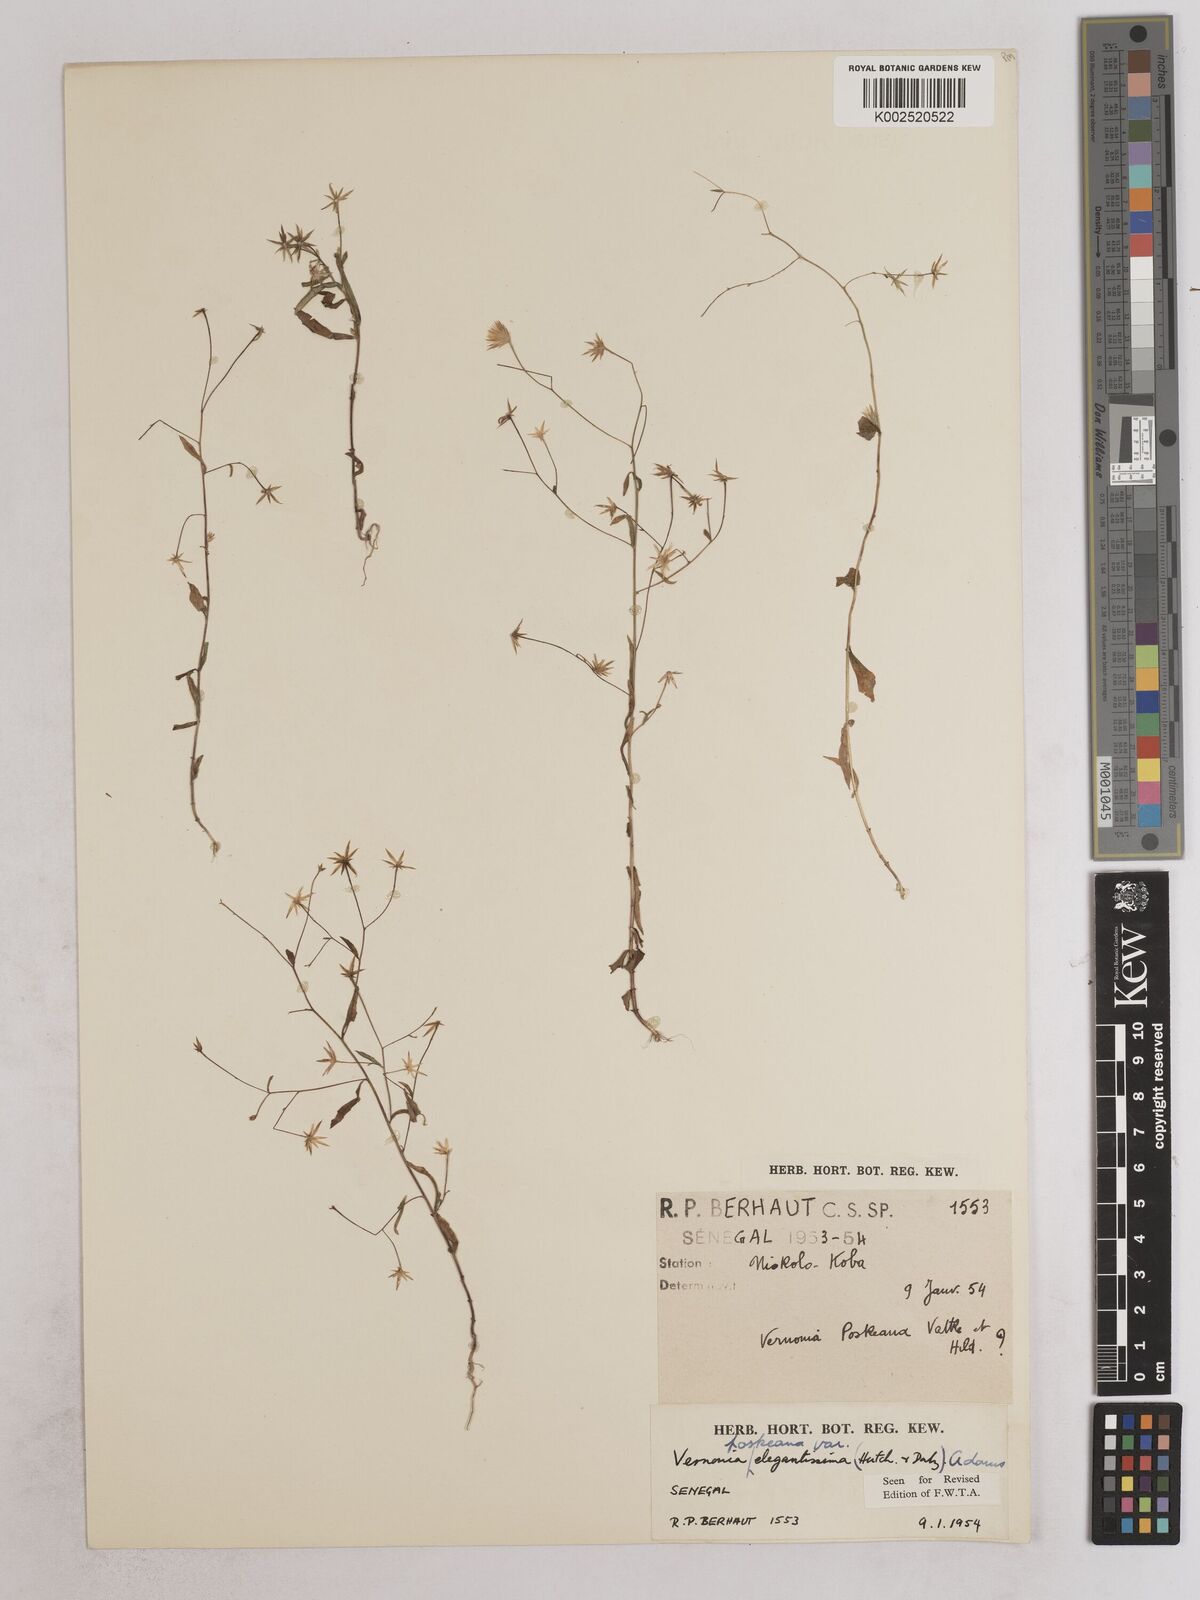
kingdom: Plantae
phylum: Tracheophyta
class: Magnoliopsida
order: Asterales
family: Asteraceae
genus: Crystallopollen
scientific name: Crystallopollen angustifolium
